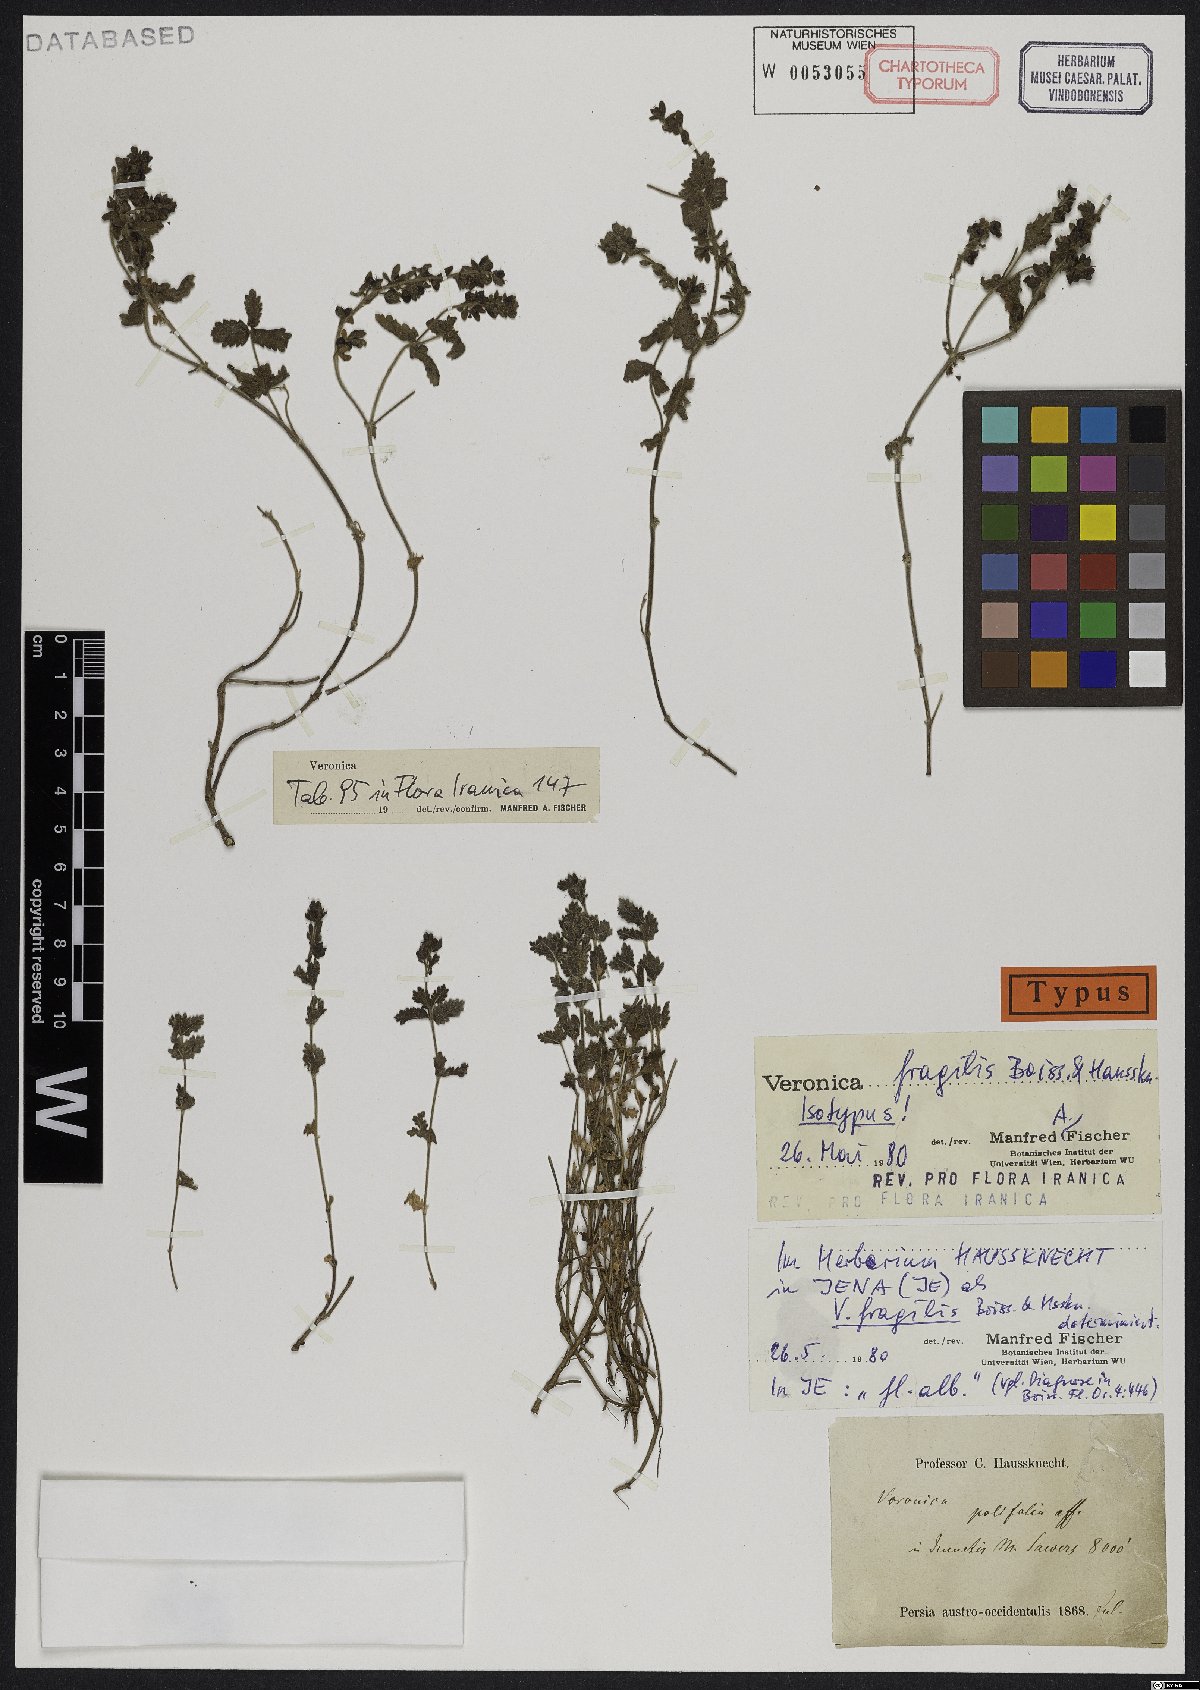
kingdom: Plantae
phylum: Tracheophyta
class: Magnoliopsida
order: Lamiales
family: Plantaginaceae
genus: Veronica
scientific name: Veronica fragilis
